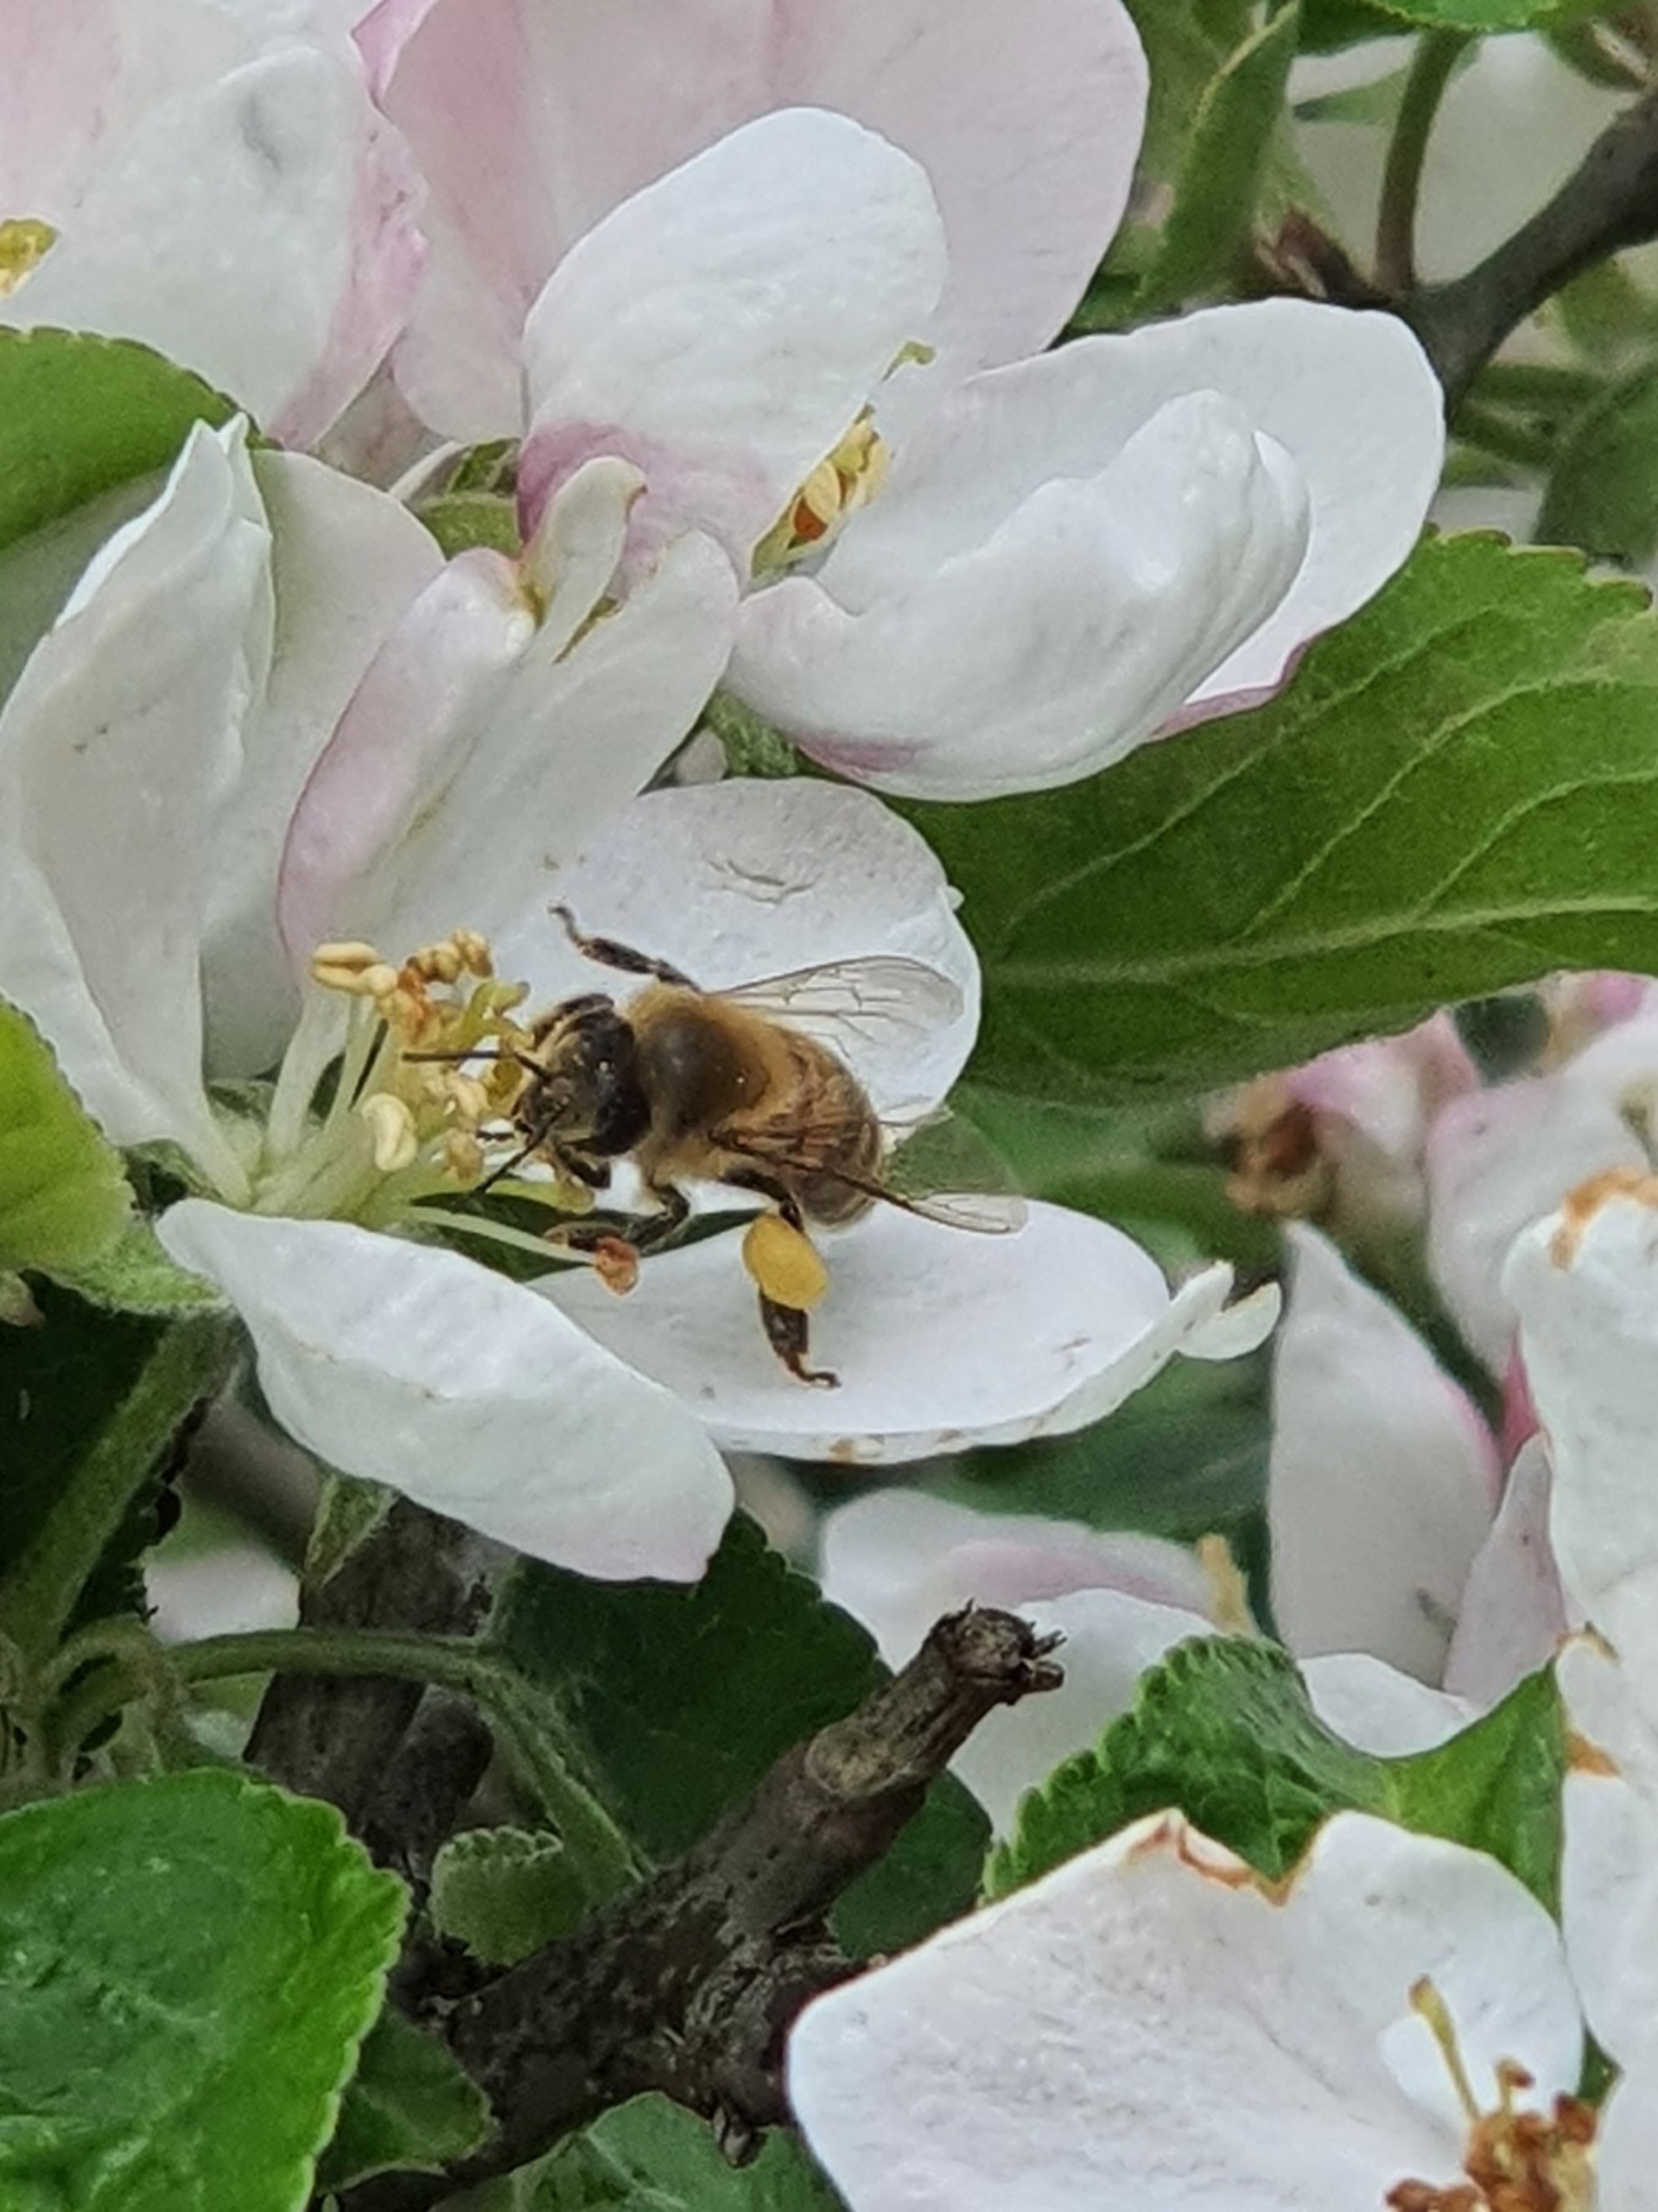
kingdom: Animalia
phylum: Arthropoda
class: Insecta
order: Hymenoptera
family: Apidae
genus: Apis
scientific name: Apis mellifera
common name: Honningbi
